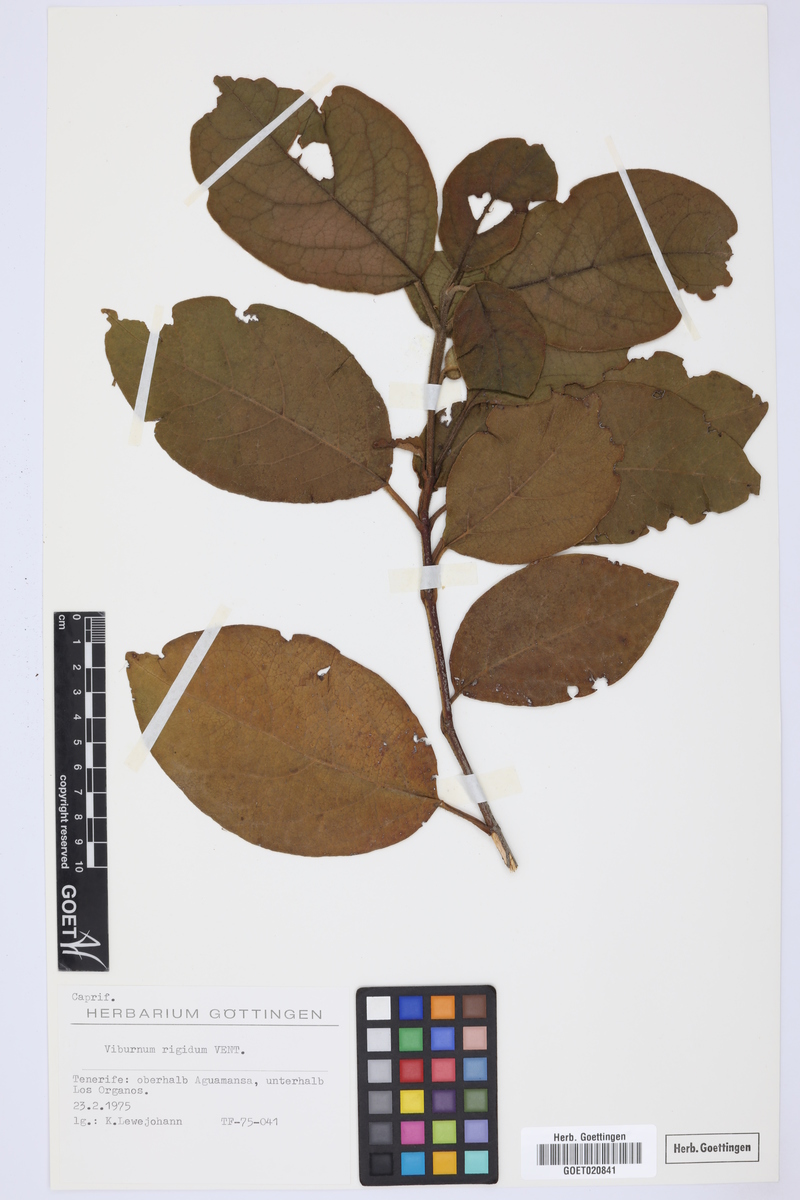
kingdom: Plantae
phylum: Tracheophyta
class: Magnoliopsida
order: Dipsacales
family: Viburnaceae
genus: Viburnum
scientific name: Viburnum rugosum
